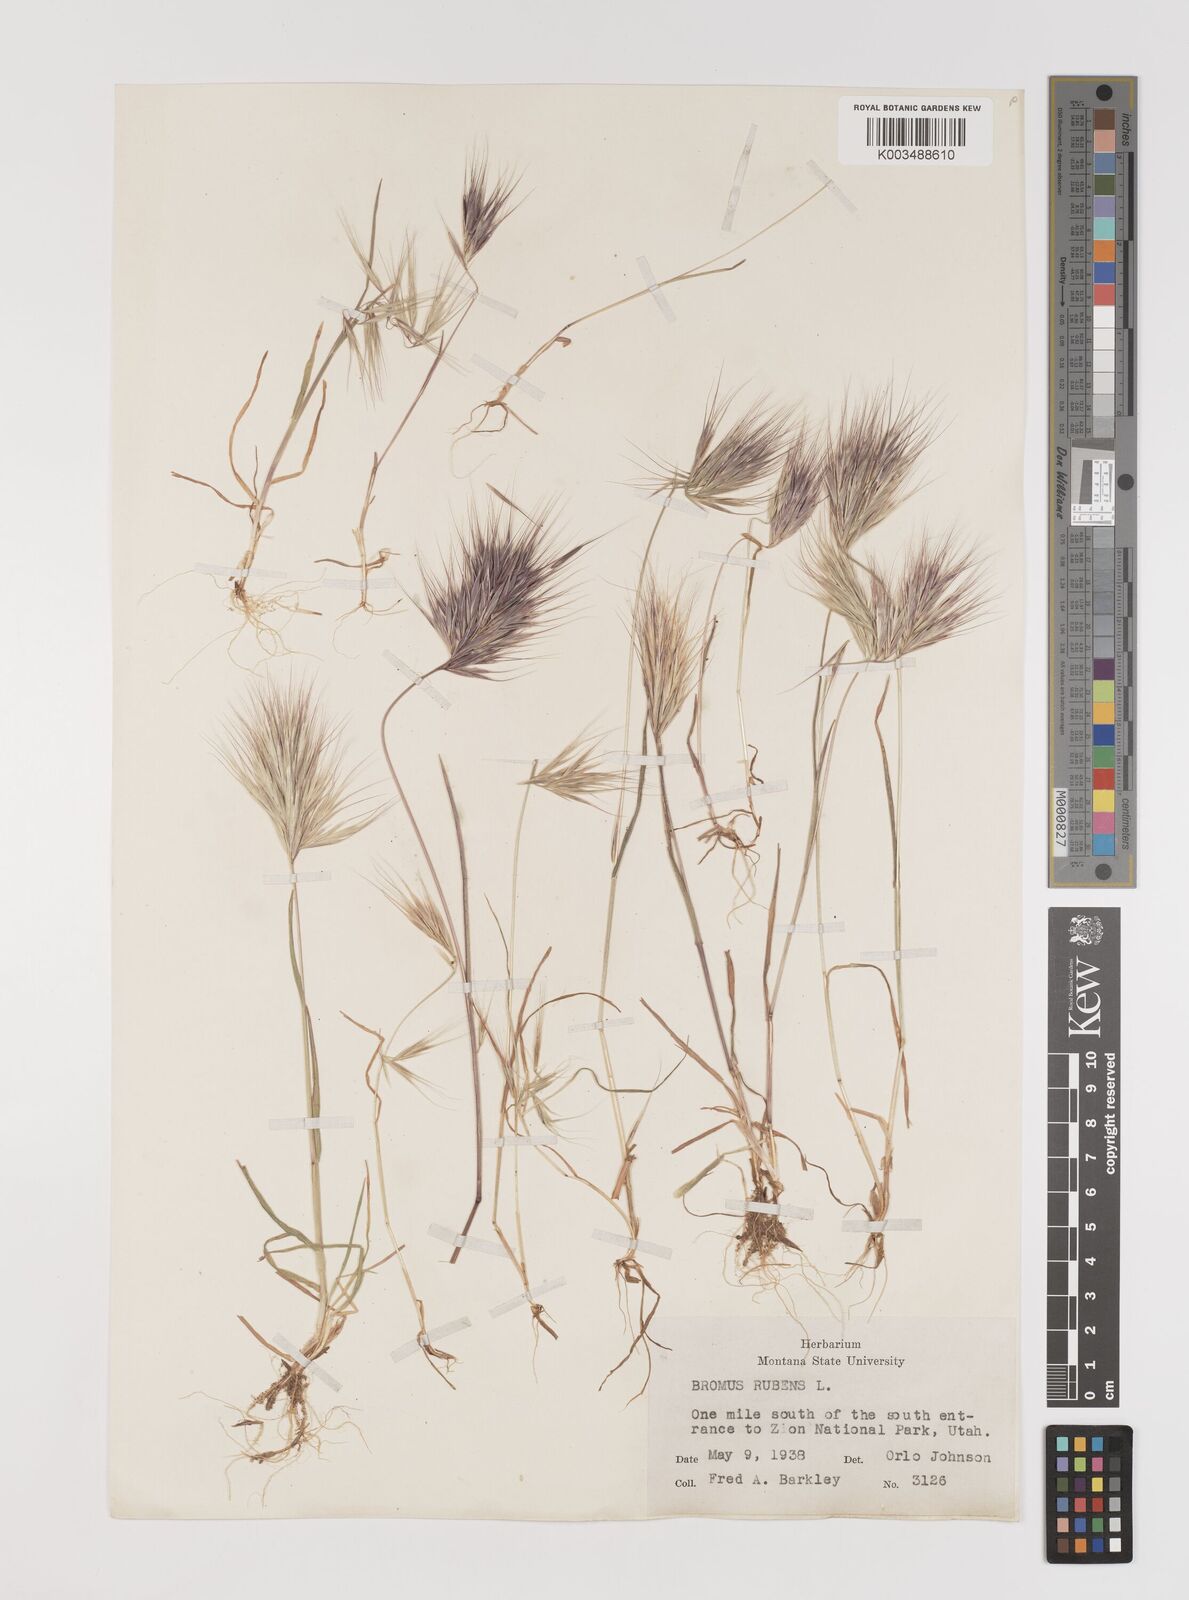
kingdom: Plantae
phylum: Tracheophyta
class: Liliopsida
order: Poales
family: Poaceae
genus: Bromus
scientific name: Bromus rubens
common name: Red brome
